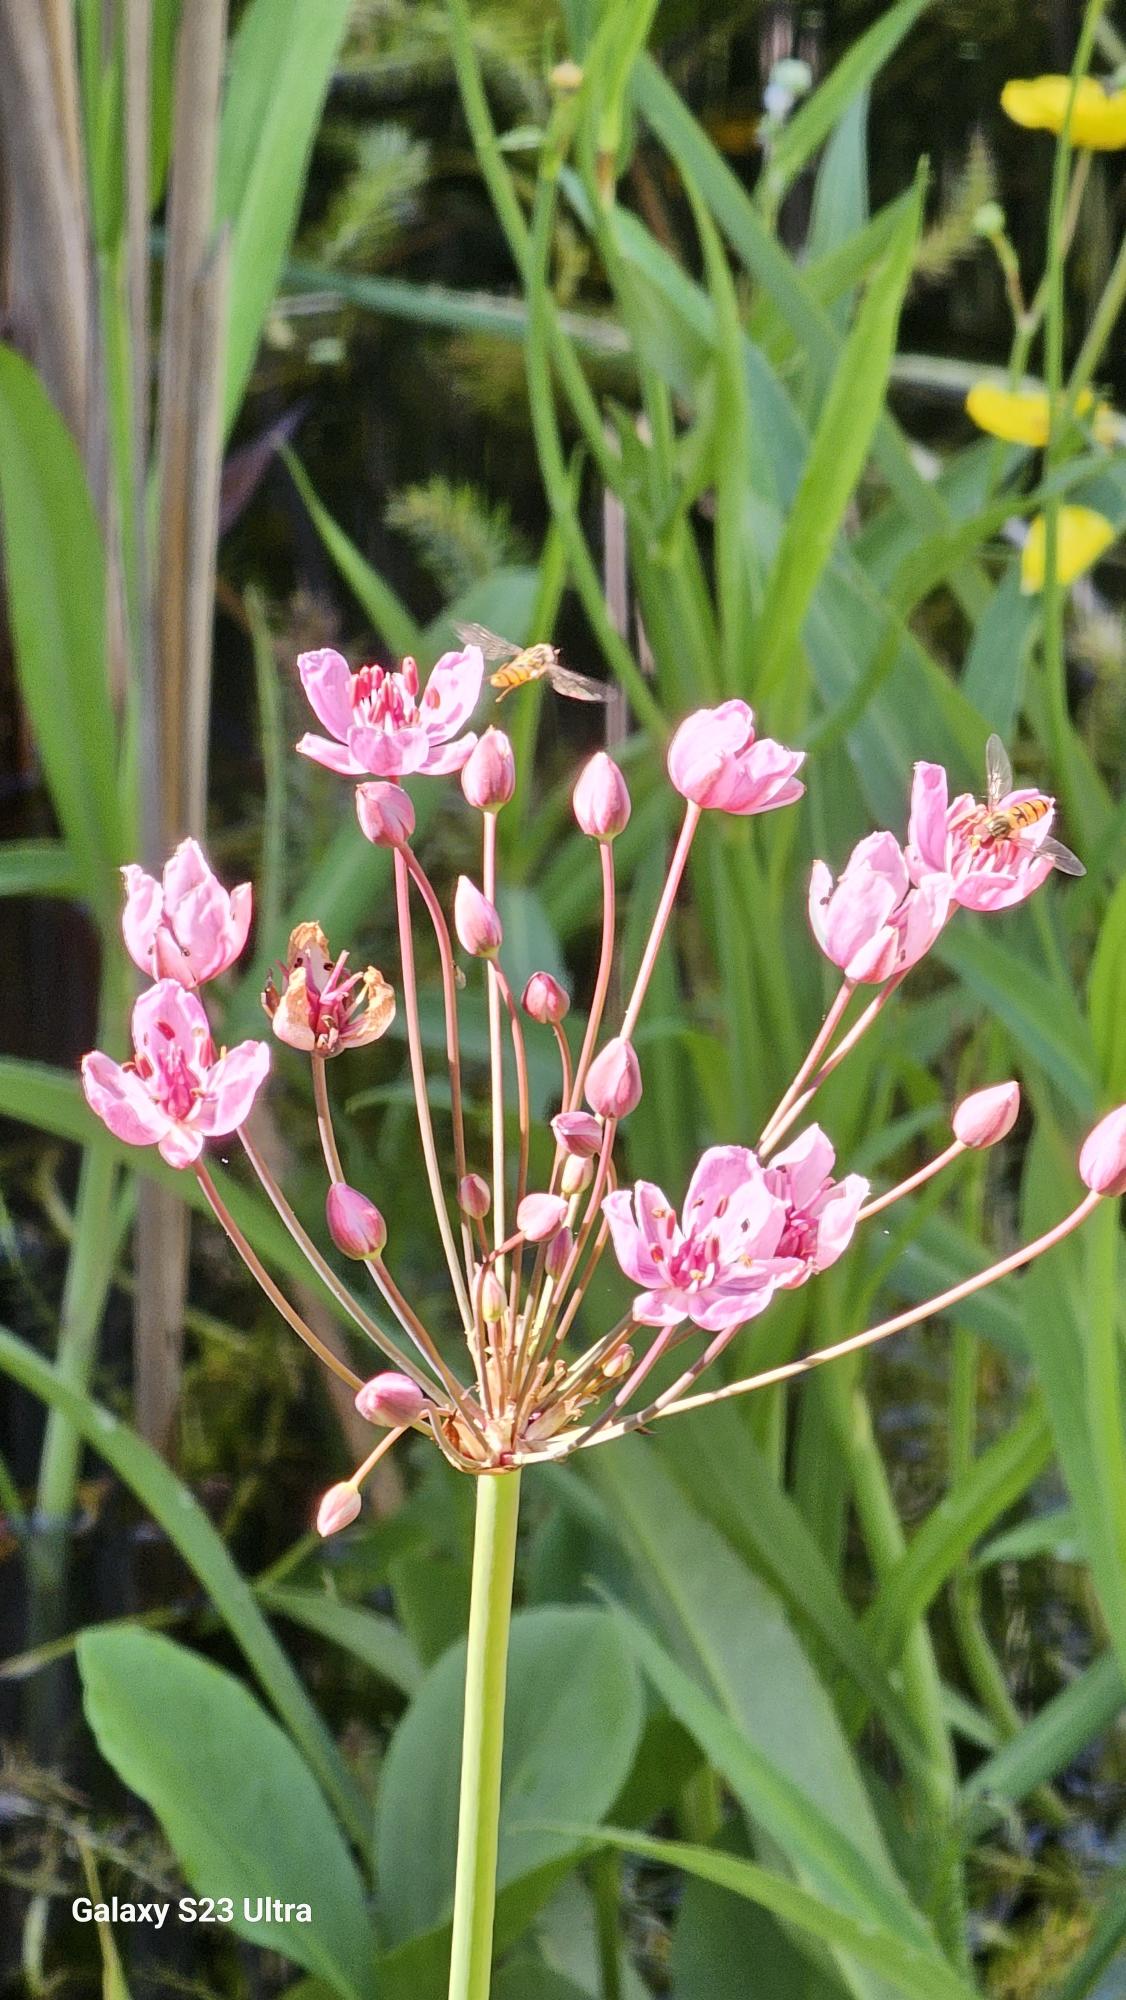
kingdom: Plantae
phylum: Tracheophyta
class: Liliopsida
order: Alismatales
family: Butomaceae
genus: Butomus
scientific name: Butomus umbellatus
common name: Brudelys
